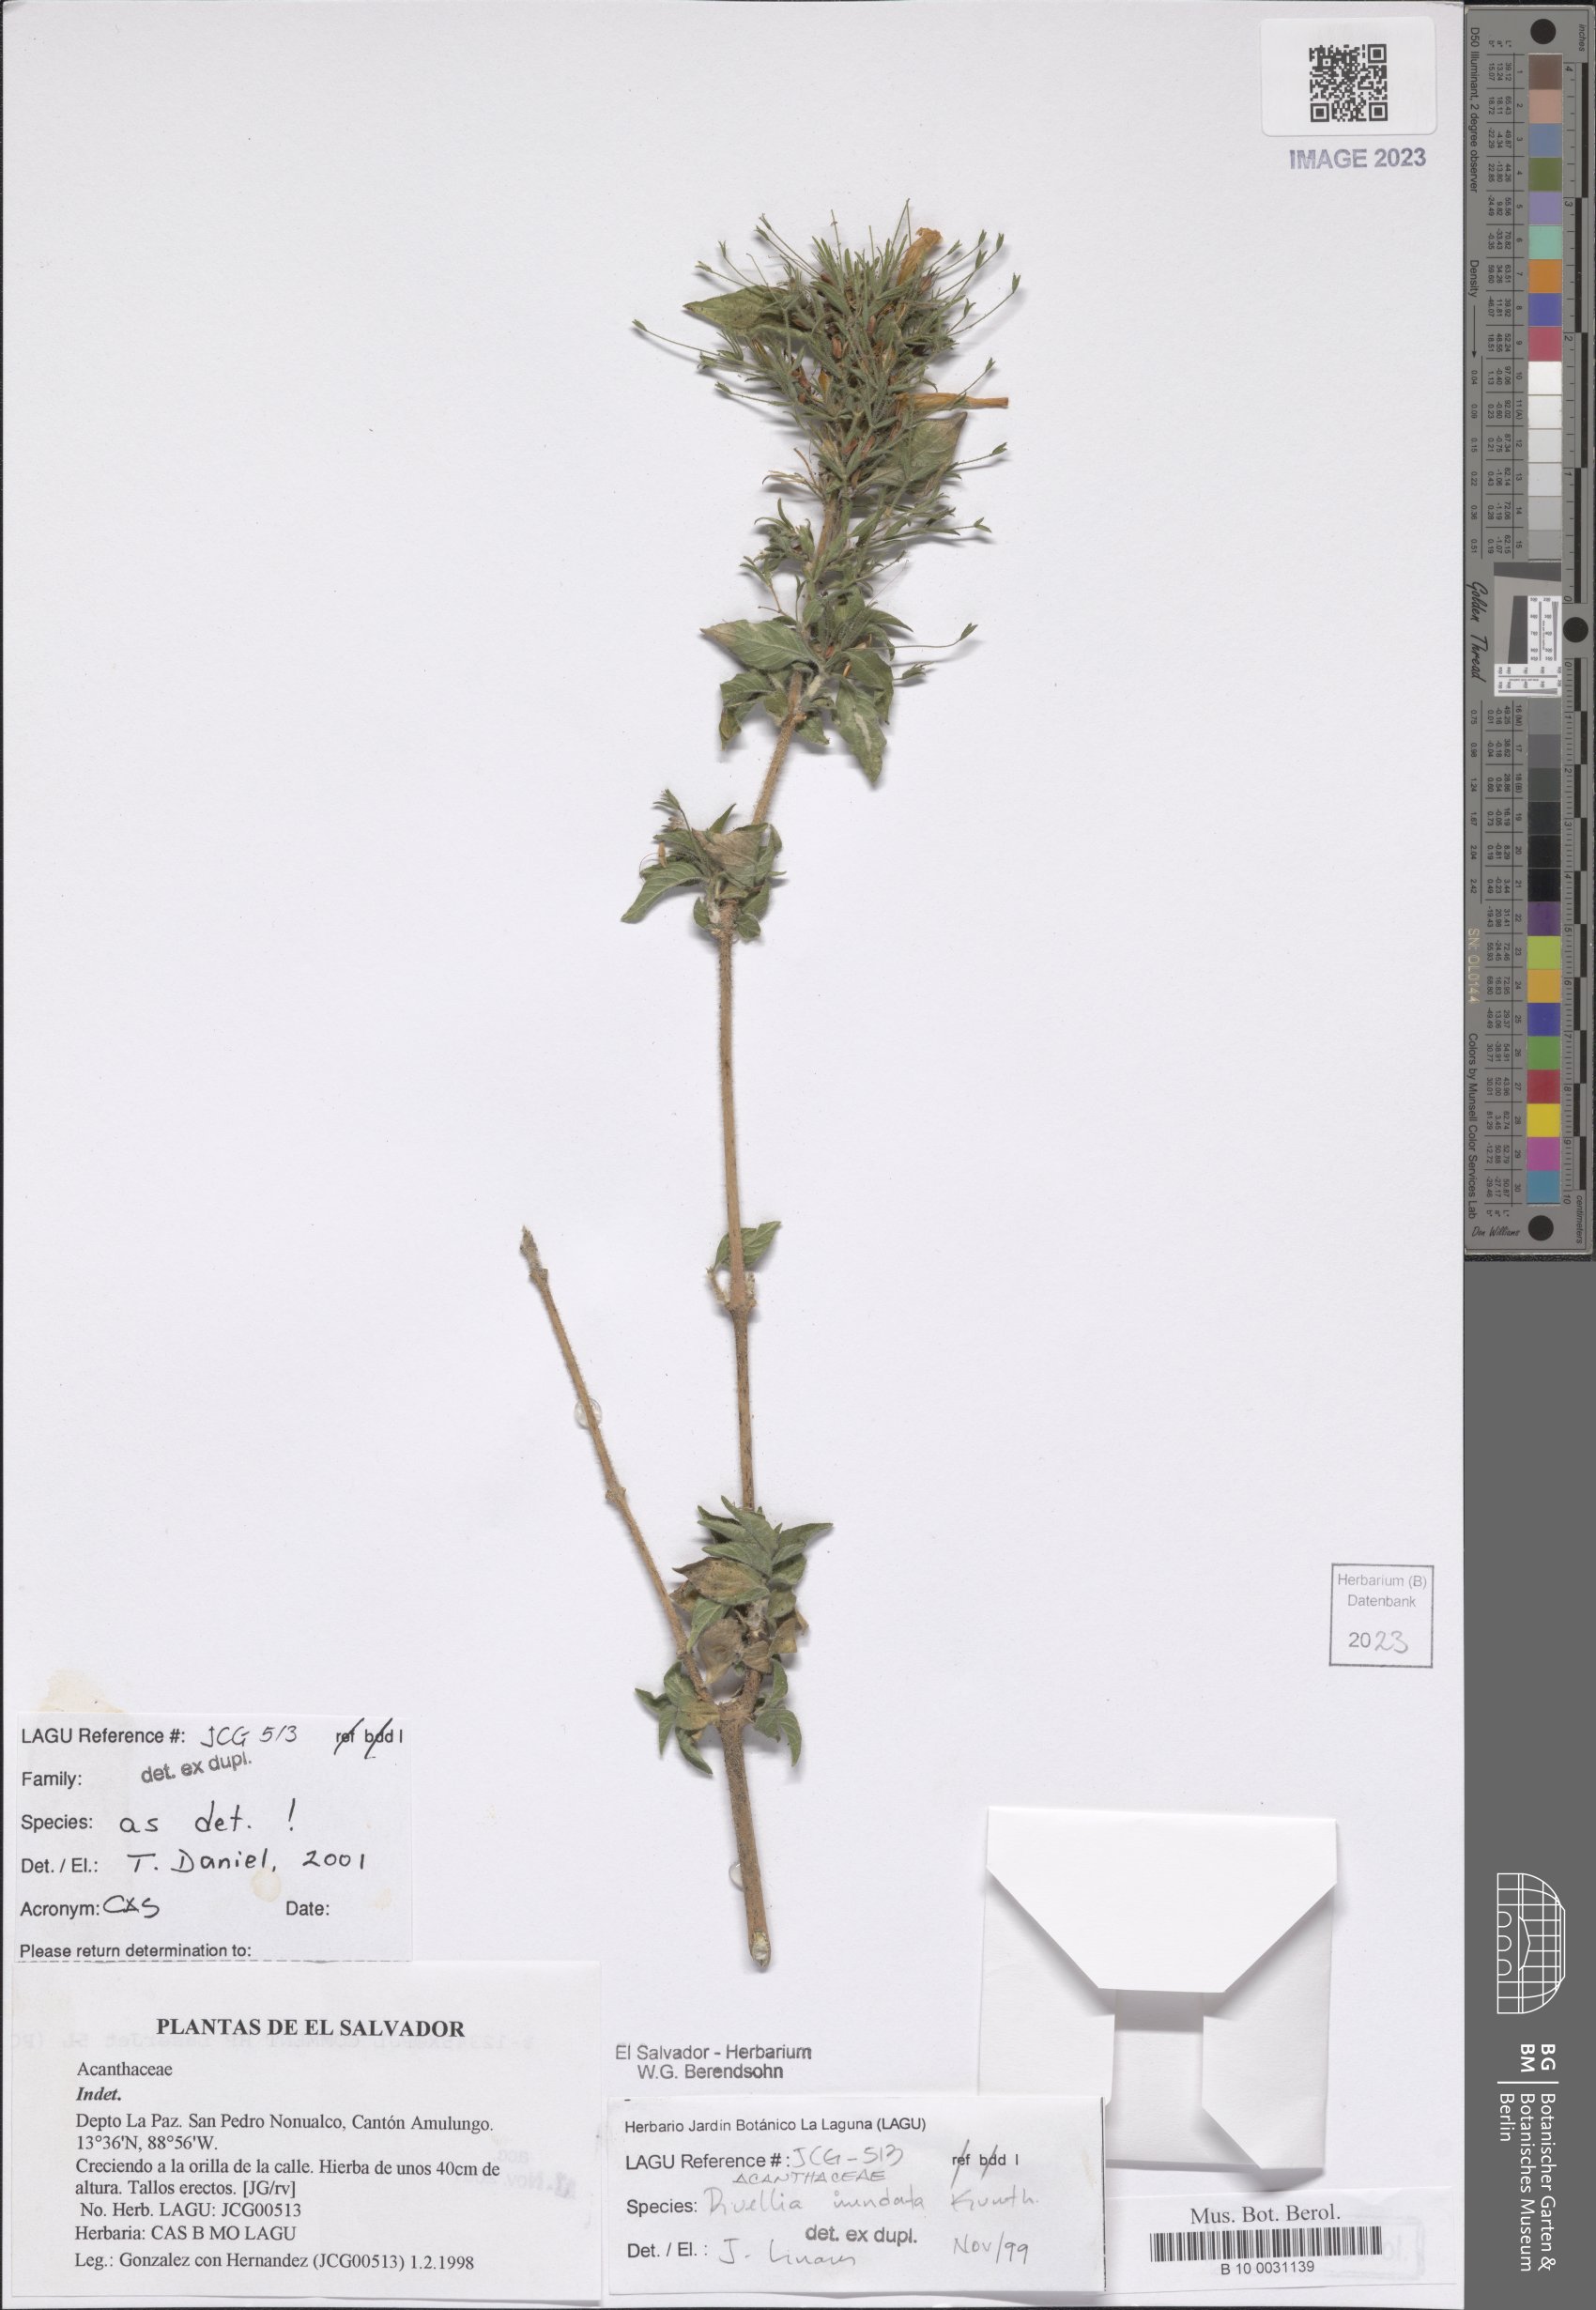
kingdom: Plantae
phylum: Tracheophyta
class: Magnoliopsida
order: Lamiales
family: Acanthaceae
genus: Ruellia
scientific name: Ruellia inundata
